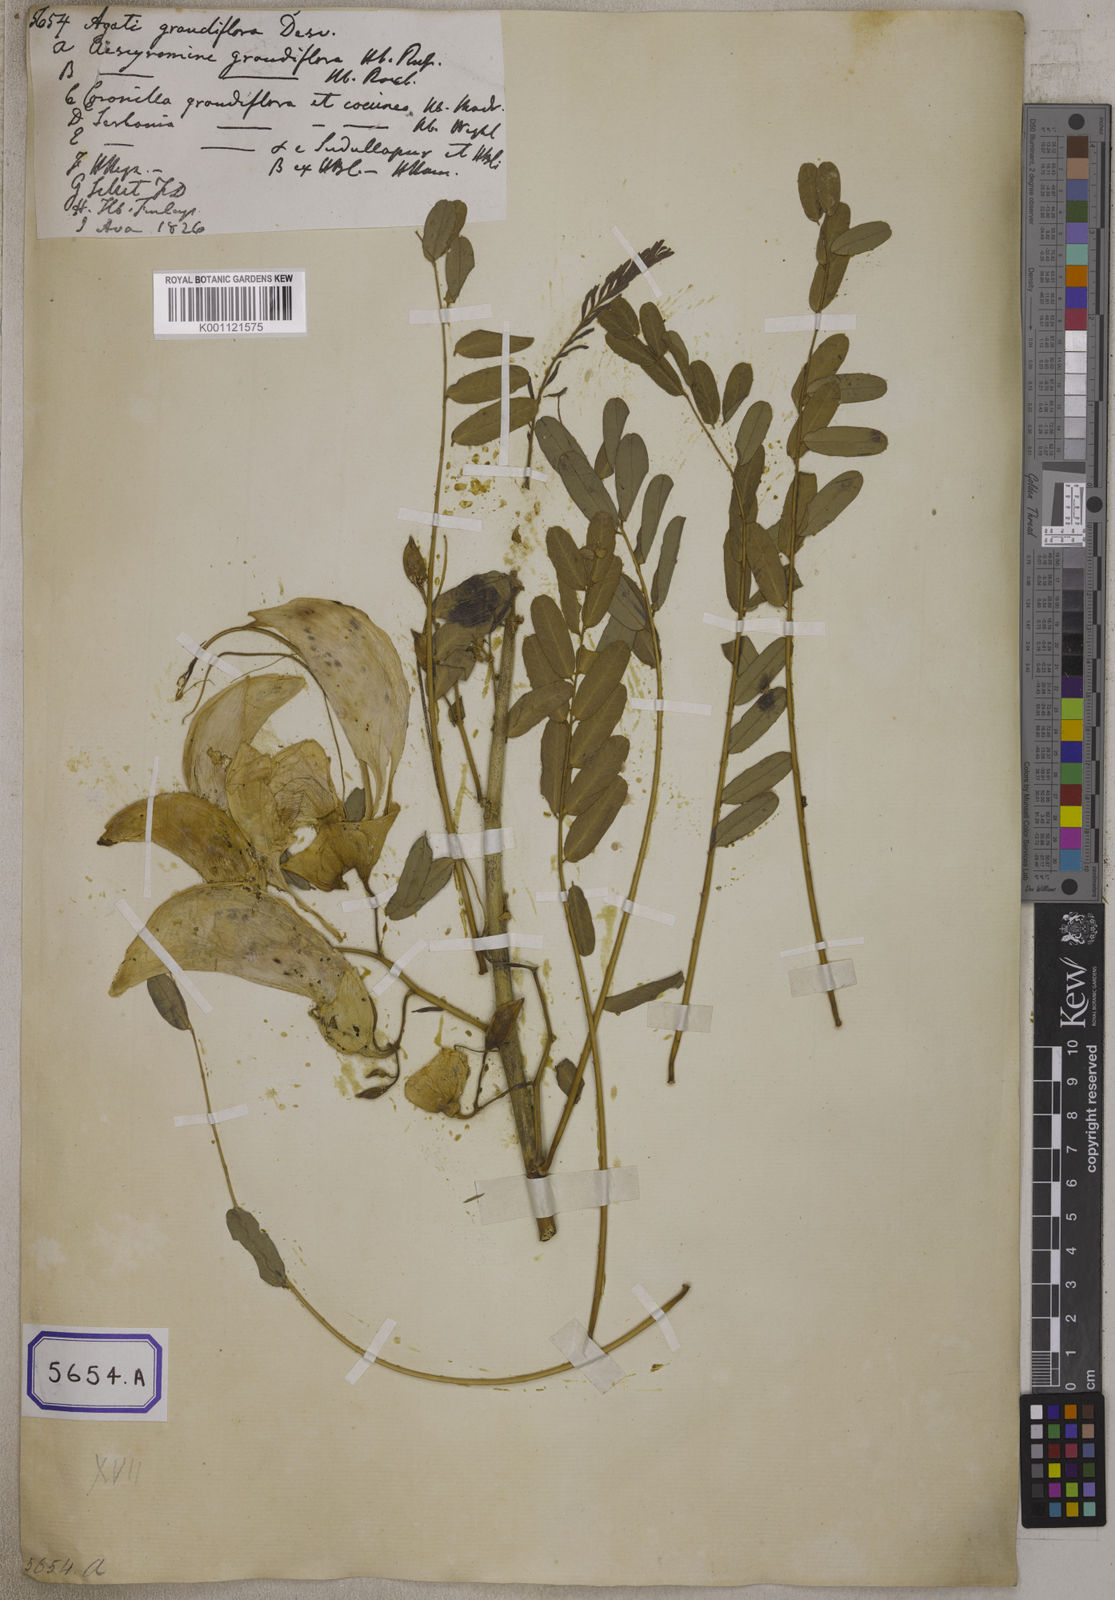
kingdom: Plantae
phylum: Tracheophyta
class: Magnoliopsida
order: Fabales
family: Fabaceae
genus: Sesbania
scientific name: Sesbania grandiflora
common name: Vegetable-hummingbird
